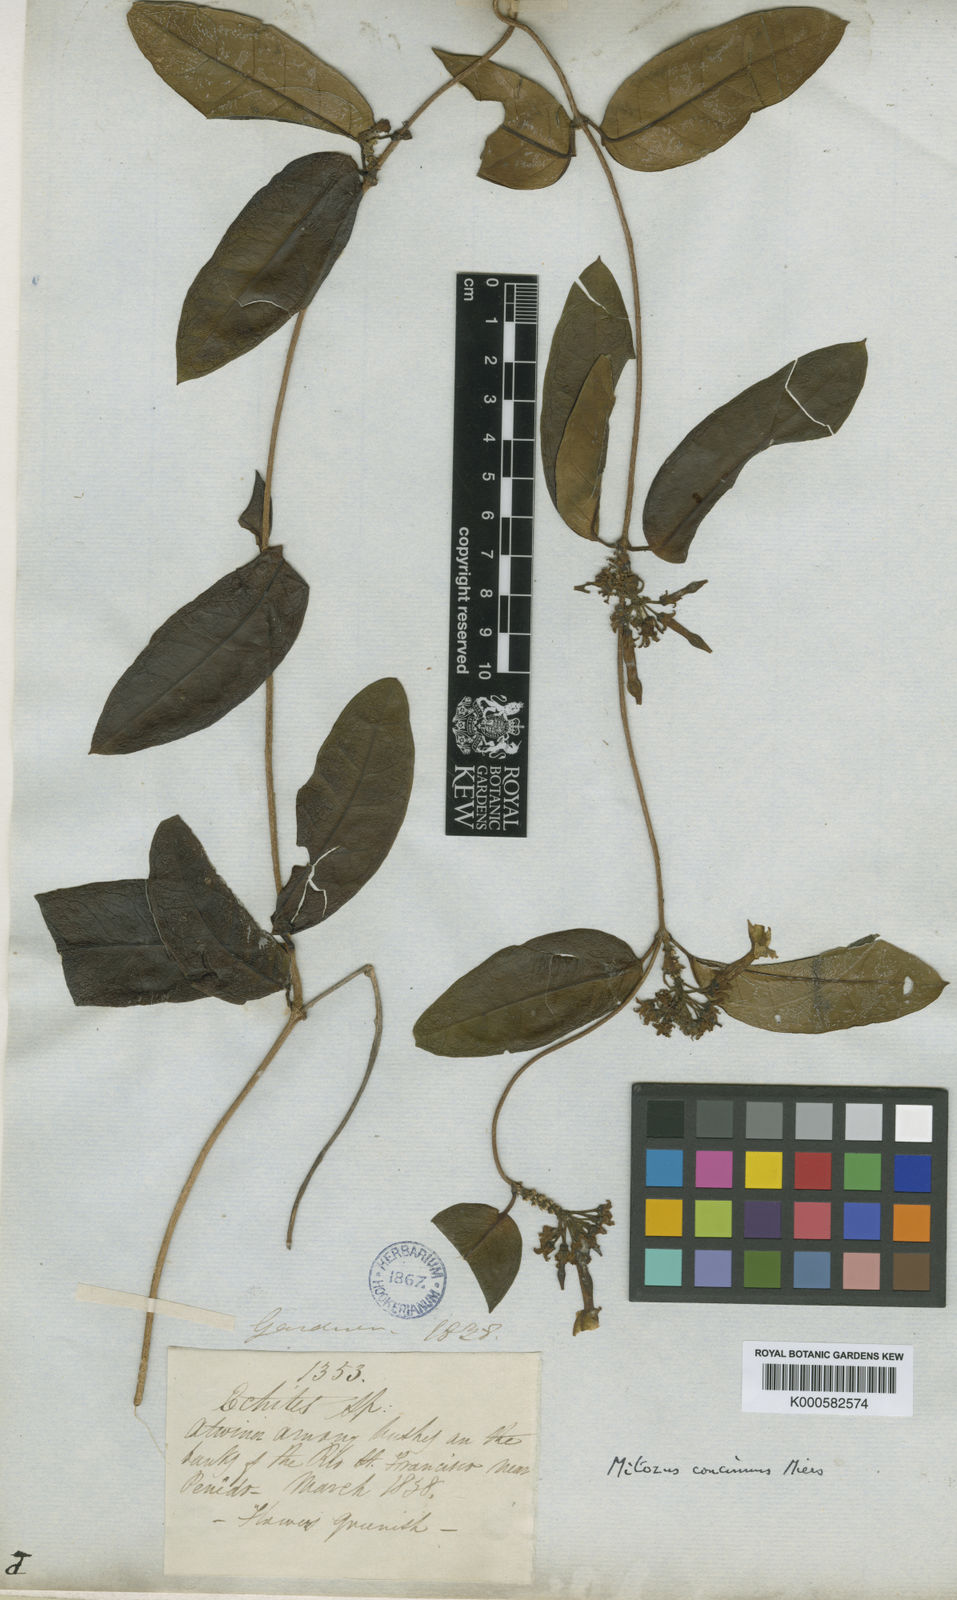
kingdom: Plantae
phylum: Tracheophyta
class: Magnoliopsida
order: Gentianales
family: Apocynaceae
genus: Prestonia
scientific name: Prestonia coalita
